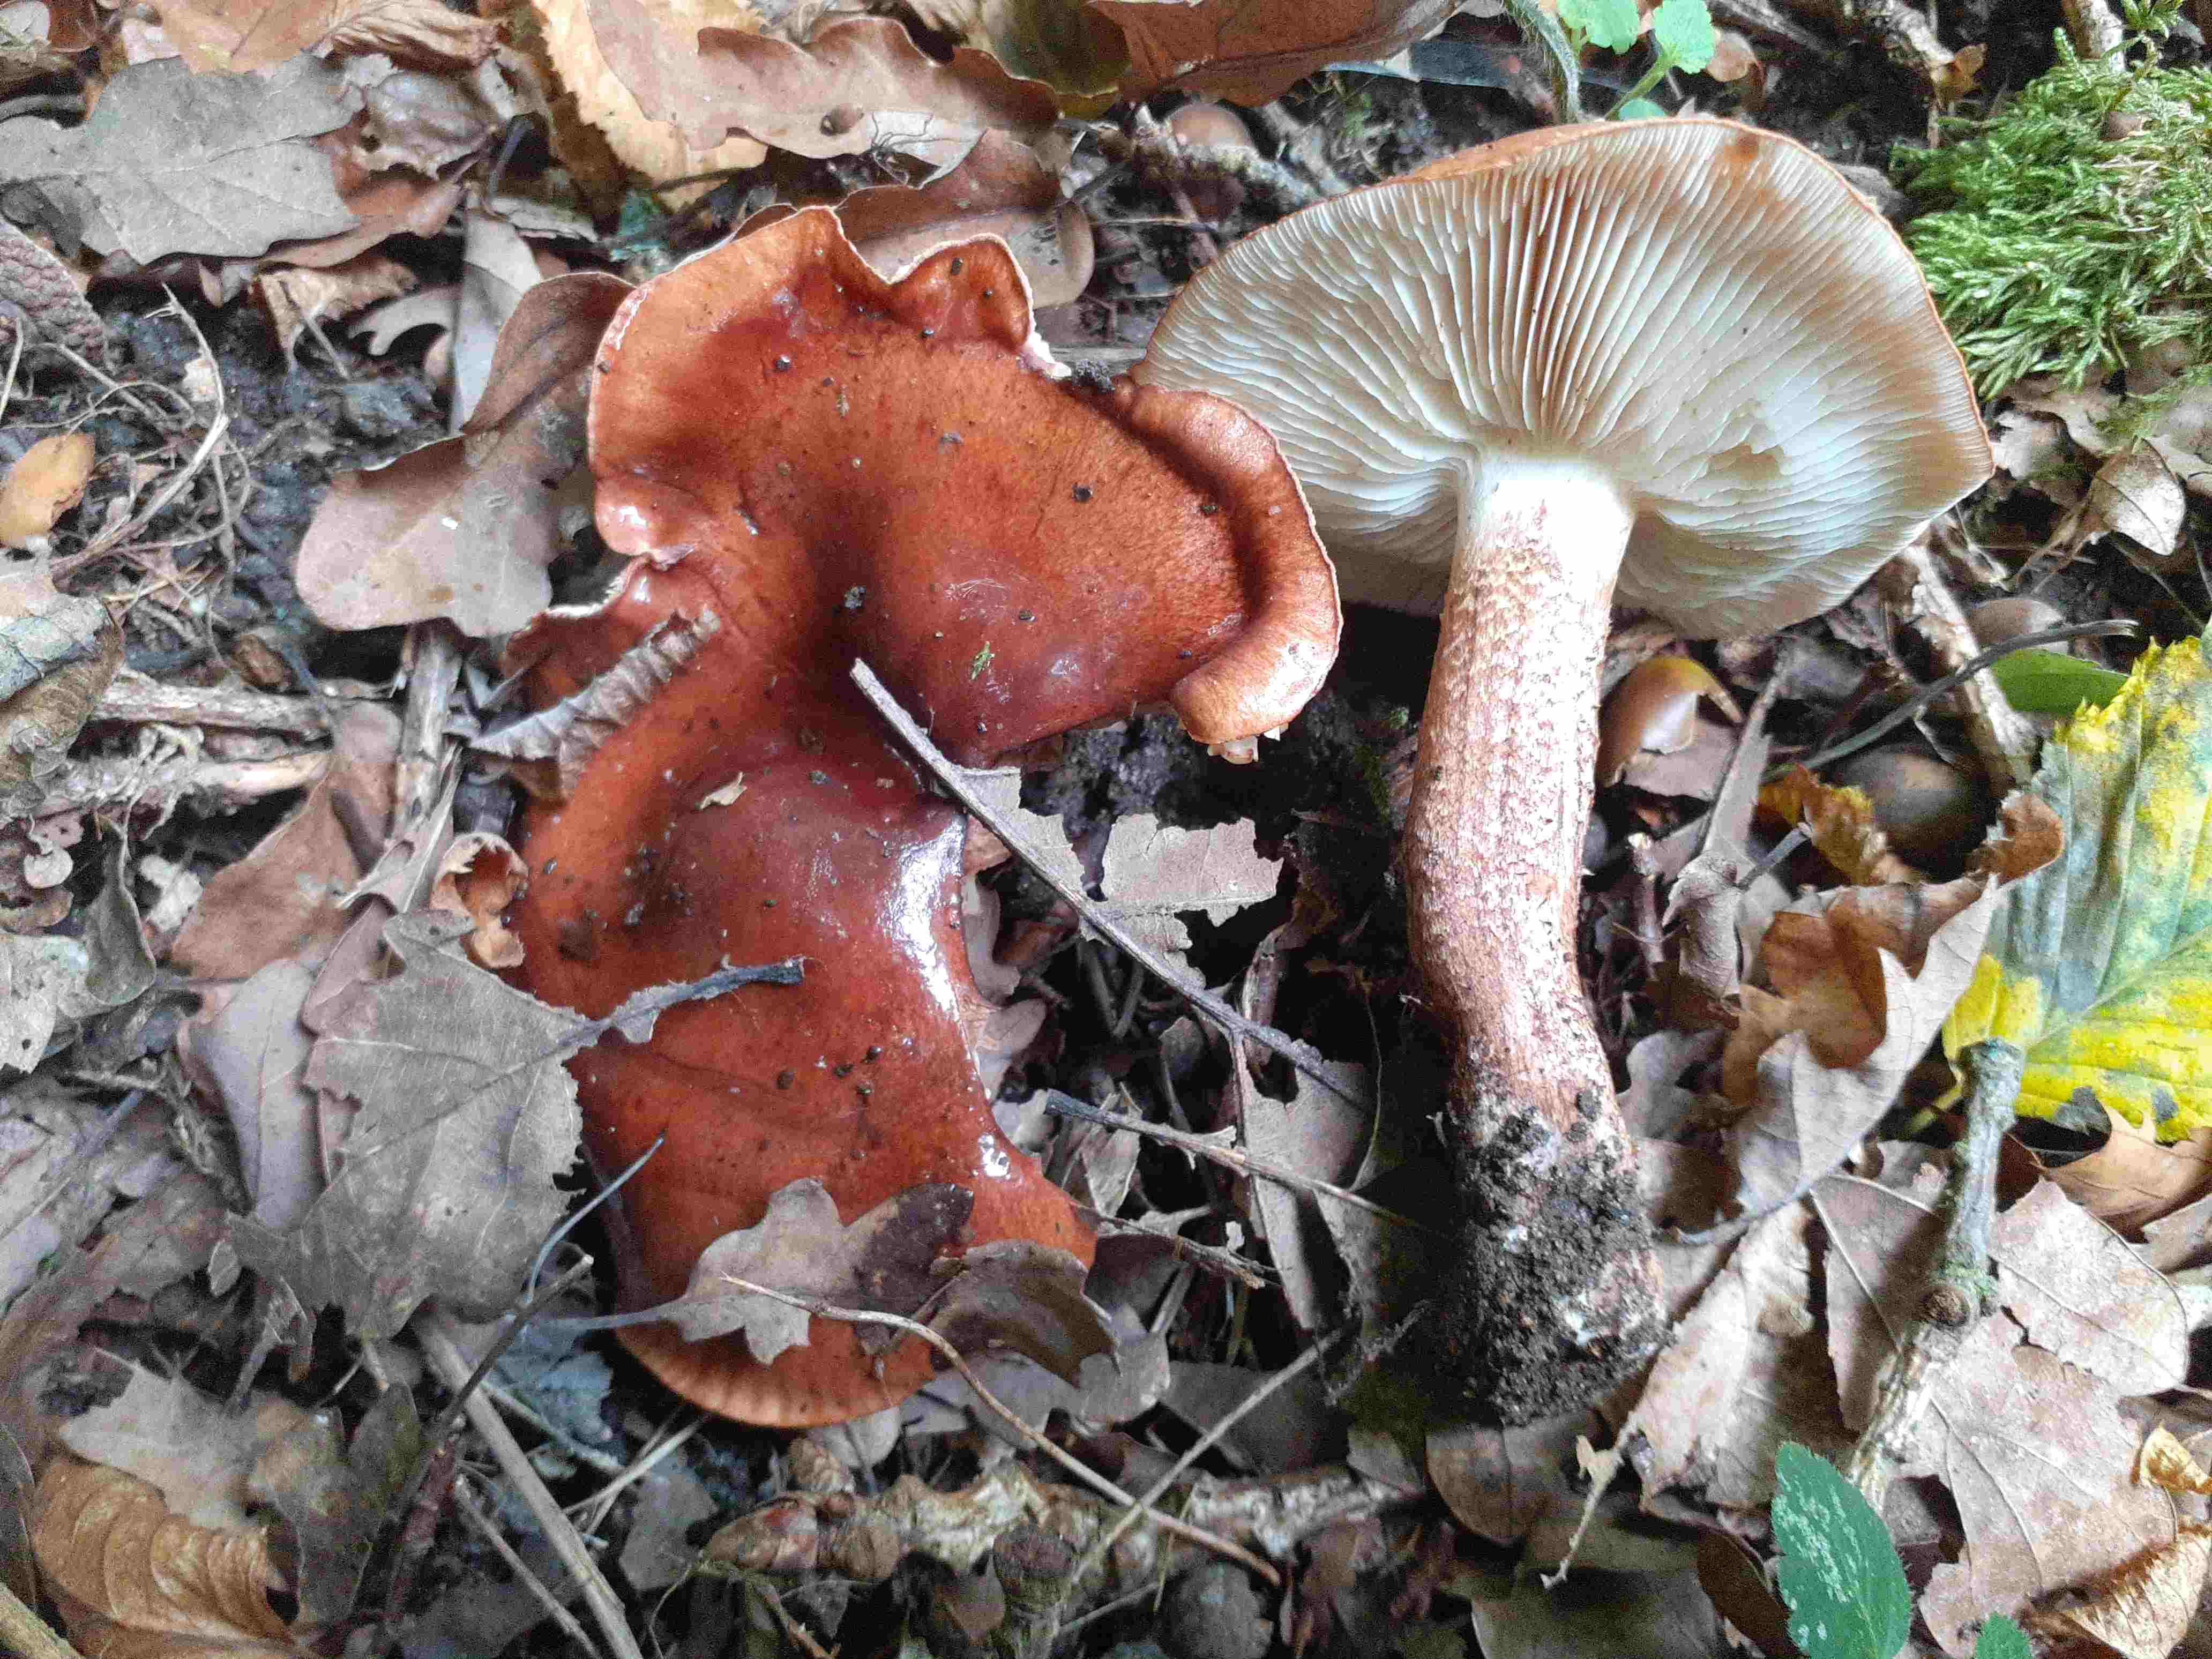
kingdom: Fungi
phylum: Basidiomycota
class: Agaricomycetes
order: Agaricales
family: Tricholomataceae
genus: Tricholoma
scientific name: Tricholoma ustaloides
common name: knippe-ridderhat
